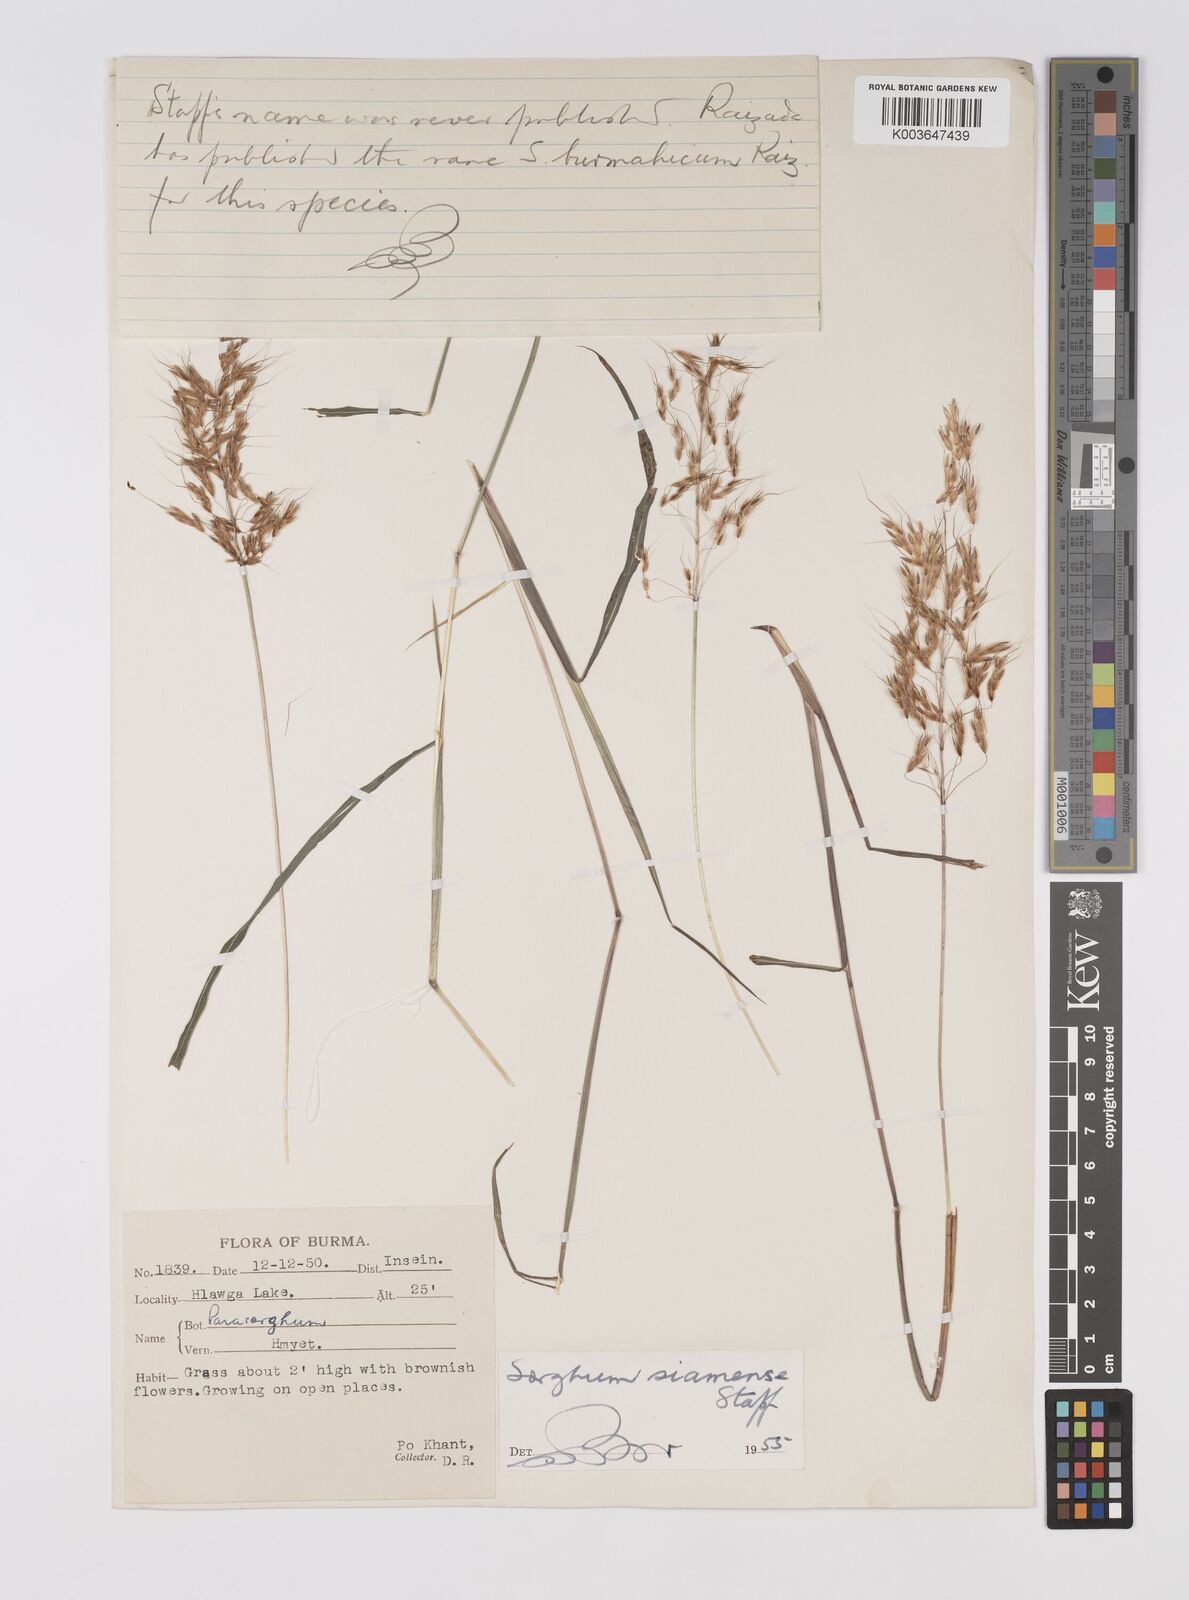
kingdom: Plantae
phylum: Tracheophyta
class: Liliopsida
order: Poales
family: Poaceae
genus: Sorghum
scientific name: Sorghum burmahicum
